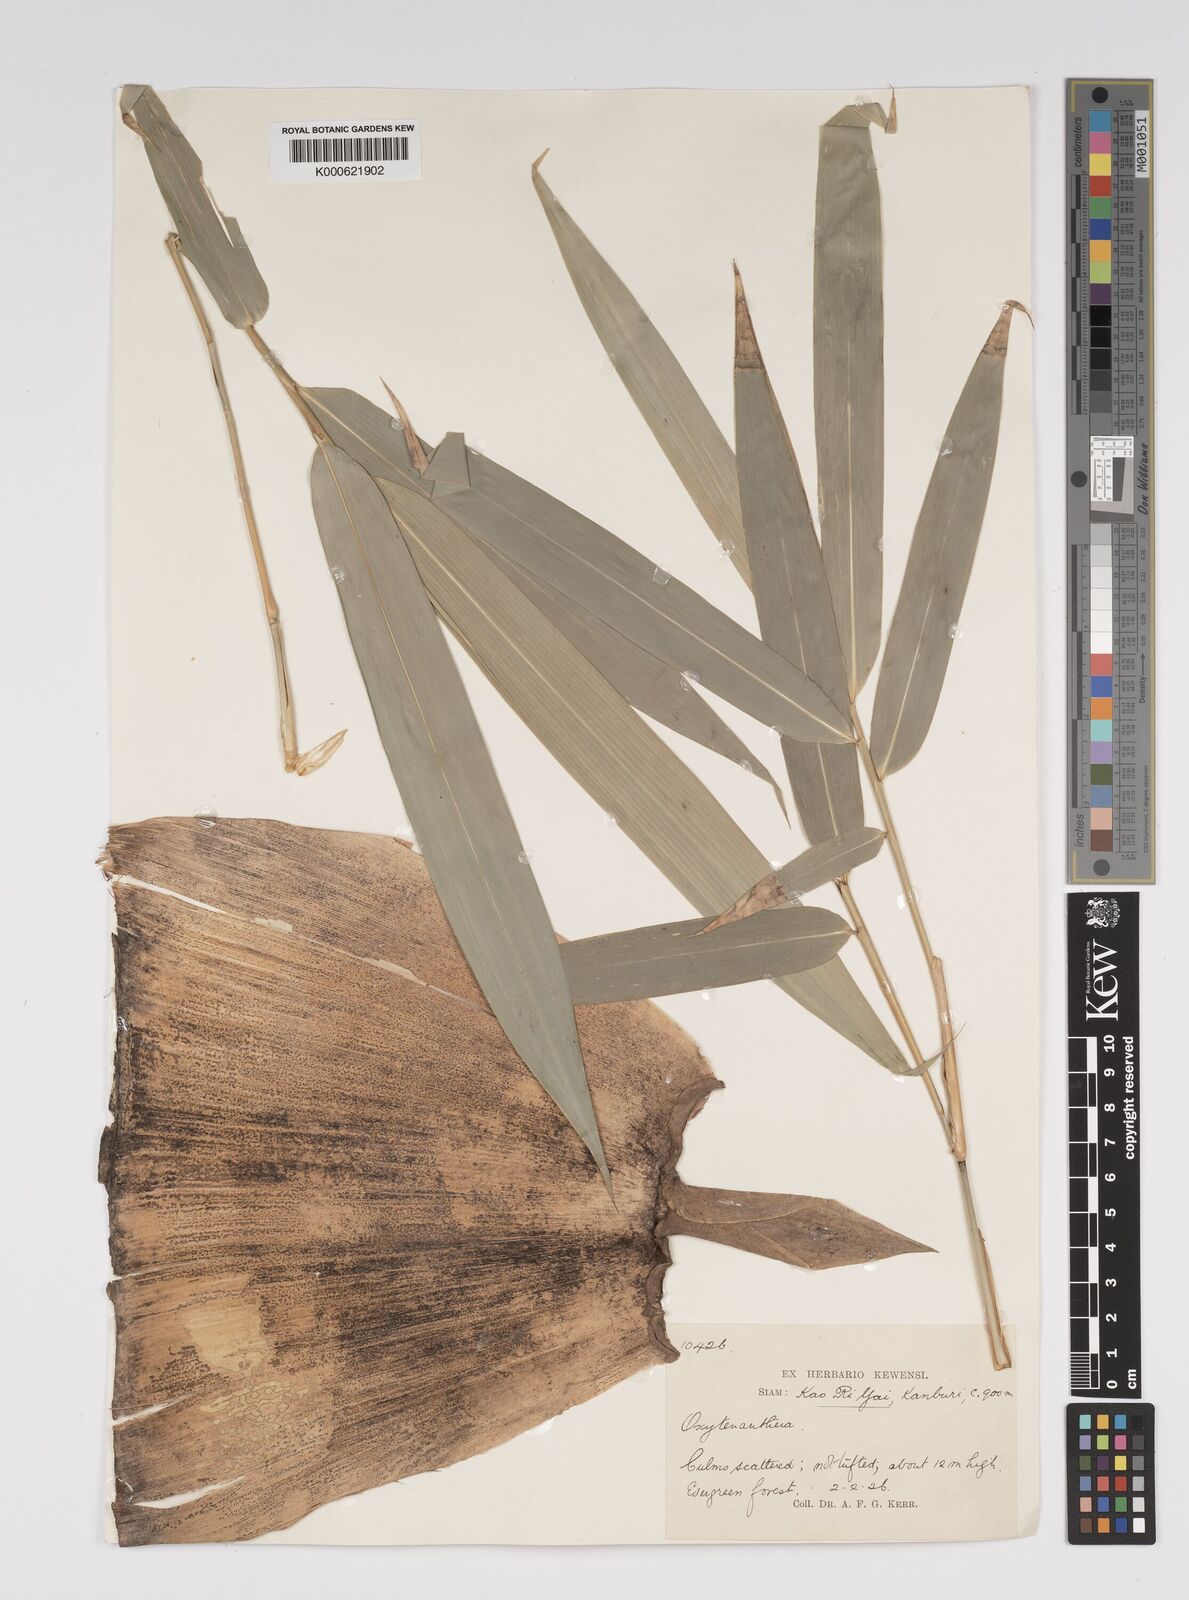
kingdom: Plantae
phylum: Tracheophyta
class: Liliopsida
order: Poales
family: Poaceae
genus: Bambusa
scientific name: Bambusa
